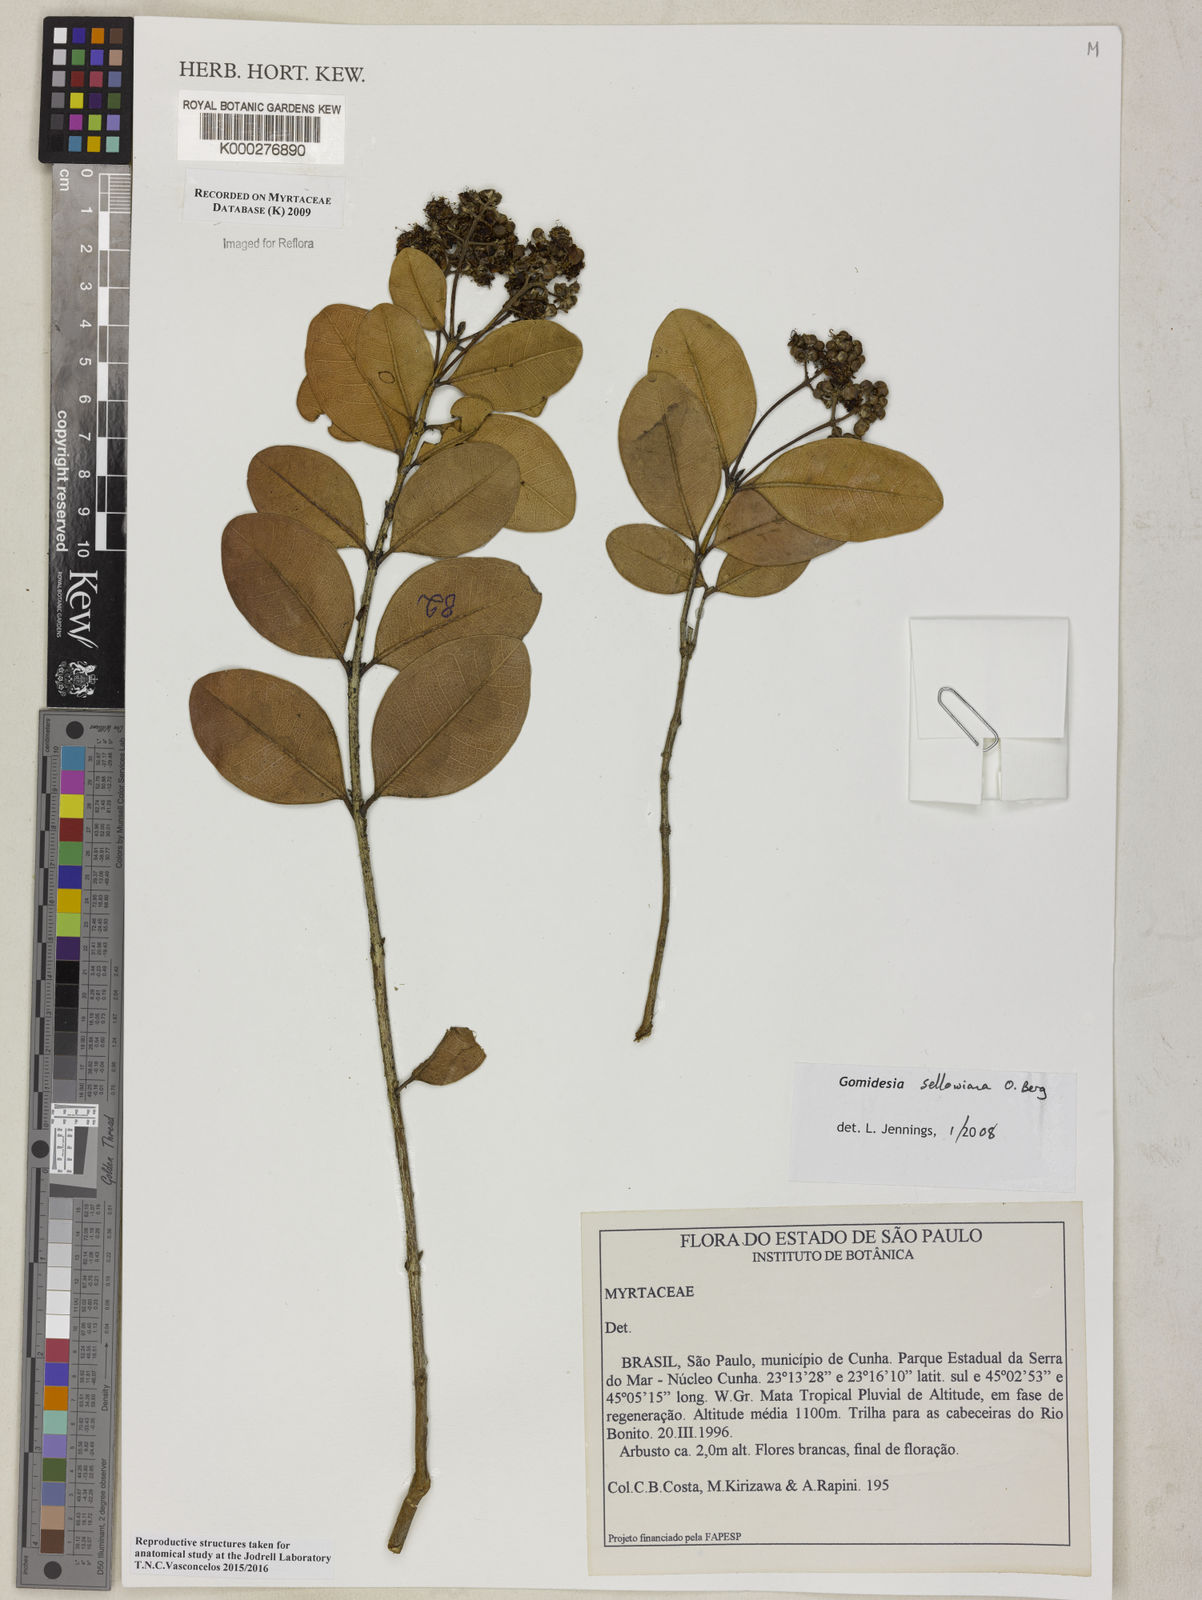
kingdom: Plantae
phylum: Tracheophyta
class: Magnoliopsida
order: Myrtales
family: Myrtaceae
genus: Myrcia
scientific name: Myrcia hartwegiana
